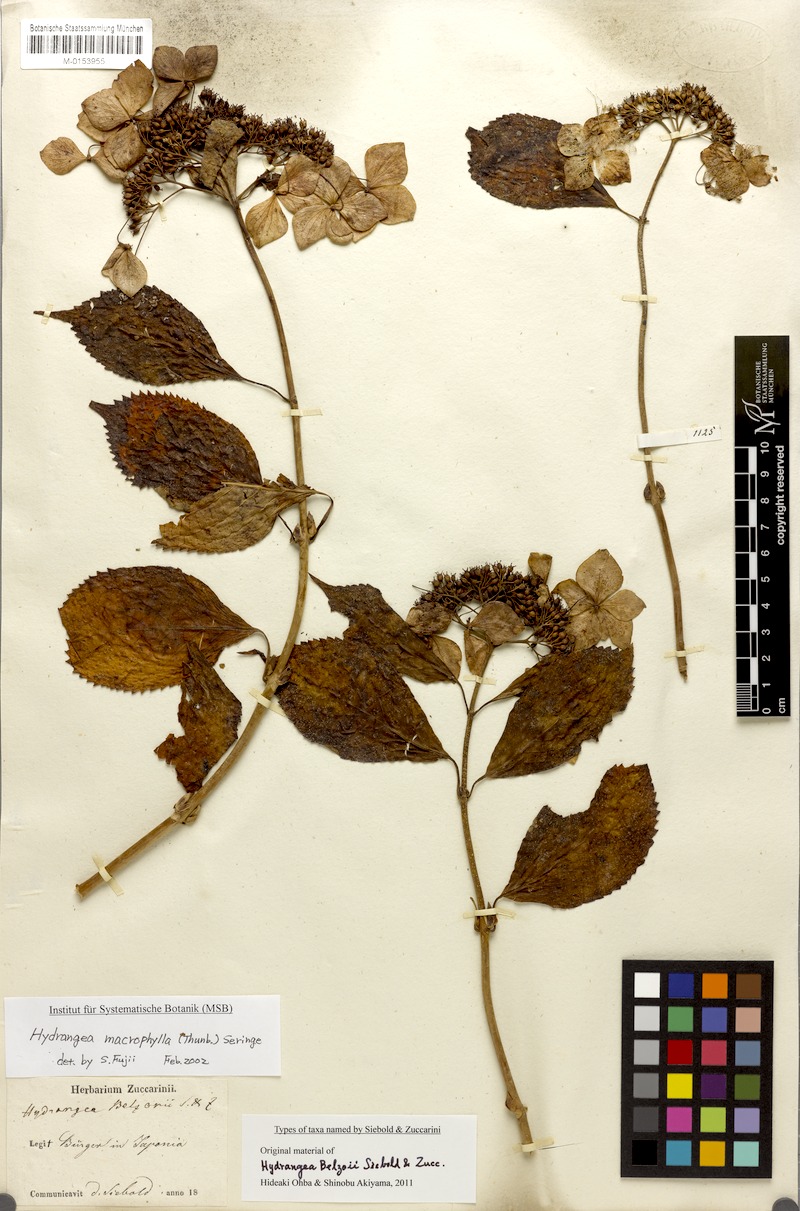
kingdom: Plantae
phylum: Tracheophyta
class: Magnoliopsida
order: Cornales
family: Hydrangeaceae
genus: Hydrangea
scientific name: Hydrangea serrata
